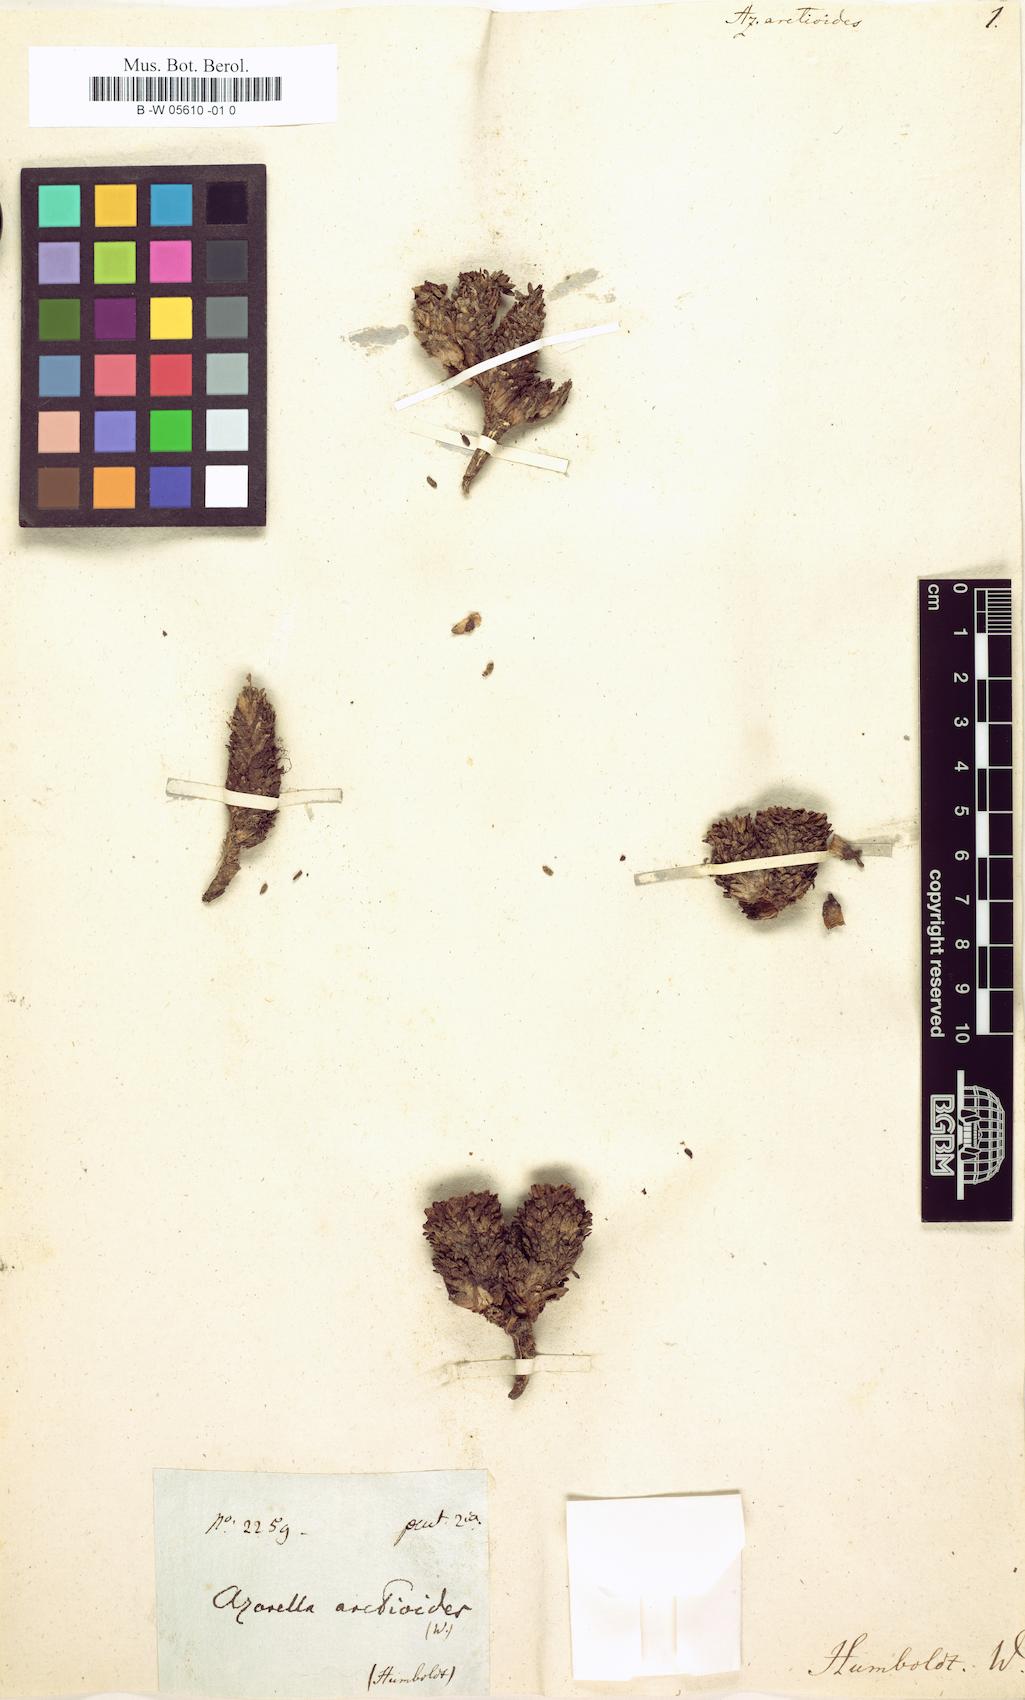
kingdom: Plantae
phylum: Tracheophyta
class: Magnoliopsida
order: Apiales
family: Apiaceae
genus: Azorella
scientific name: Azorella aretioides
